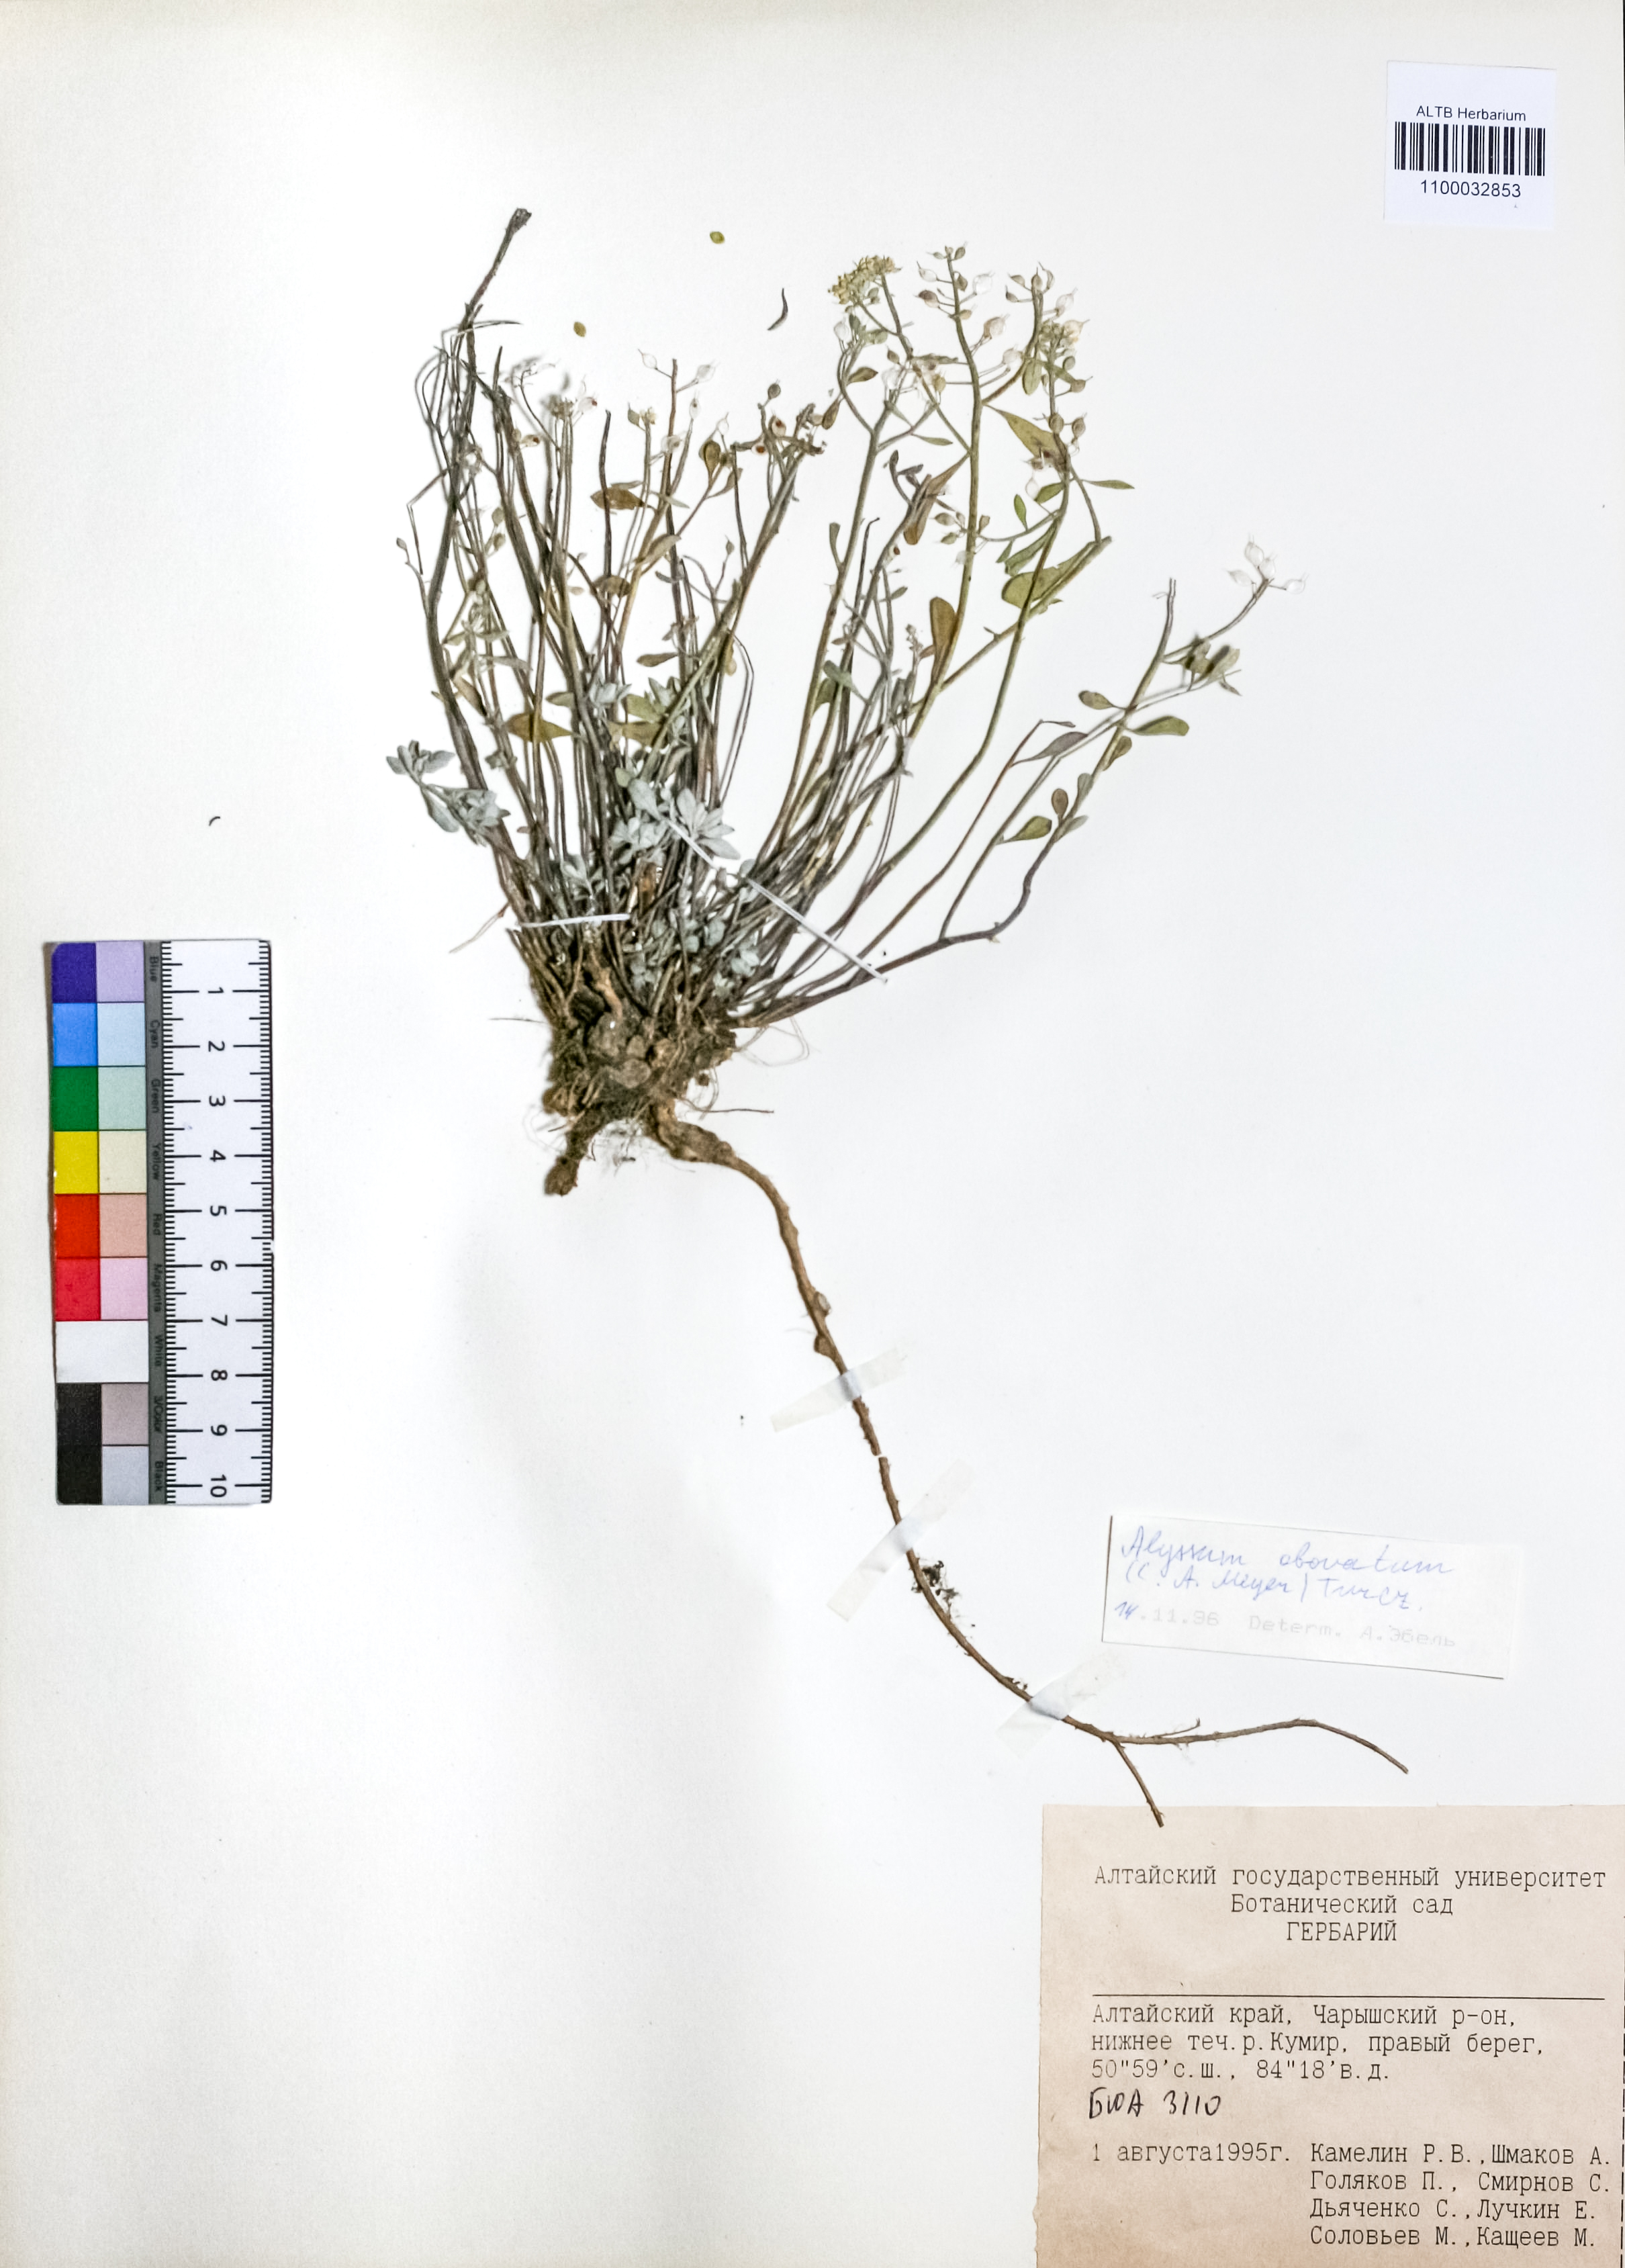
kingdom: Plantae
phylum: Tracheophyta
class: Magnoliopsida
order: Brassicales
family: Brassicaceae
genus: Odontarrhena
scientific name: Odontarrhena obovata
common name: American alyssum
